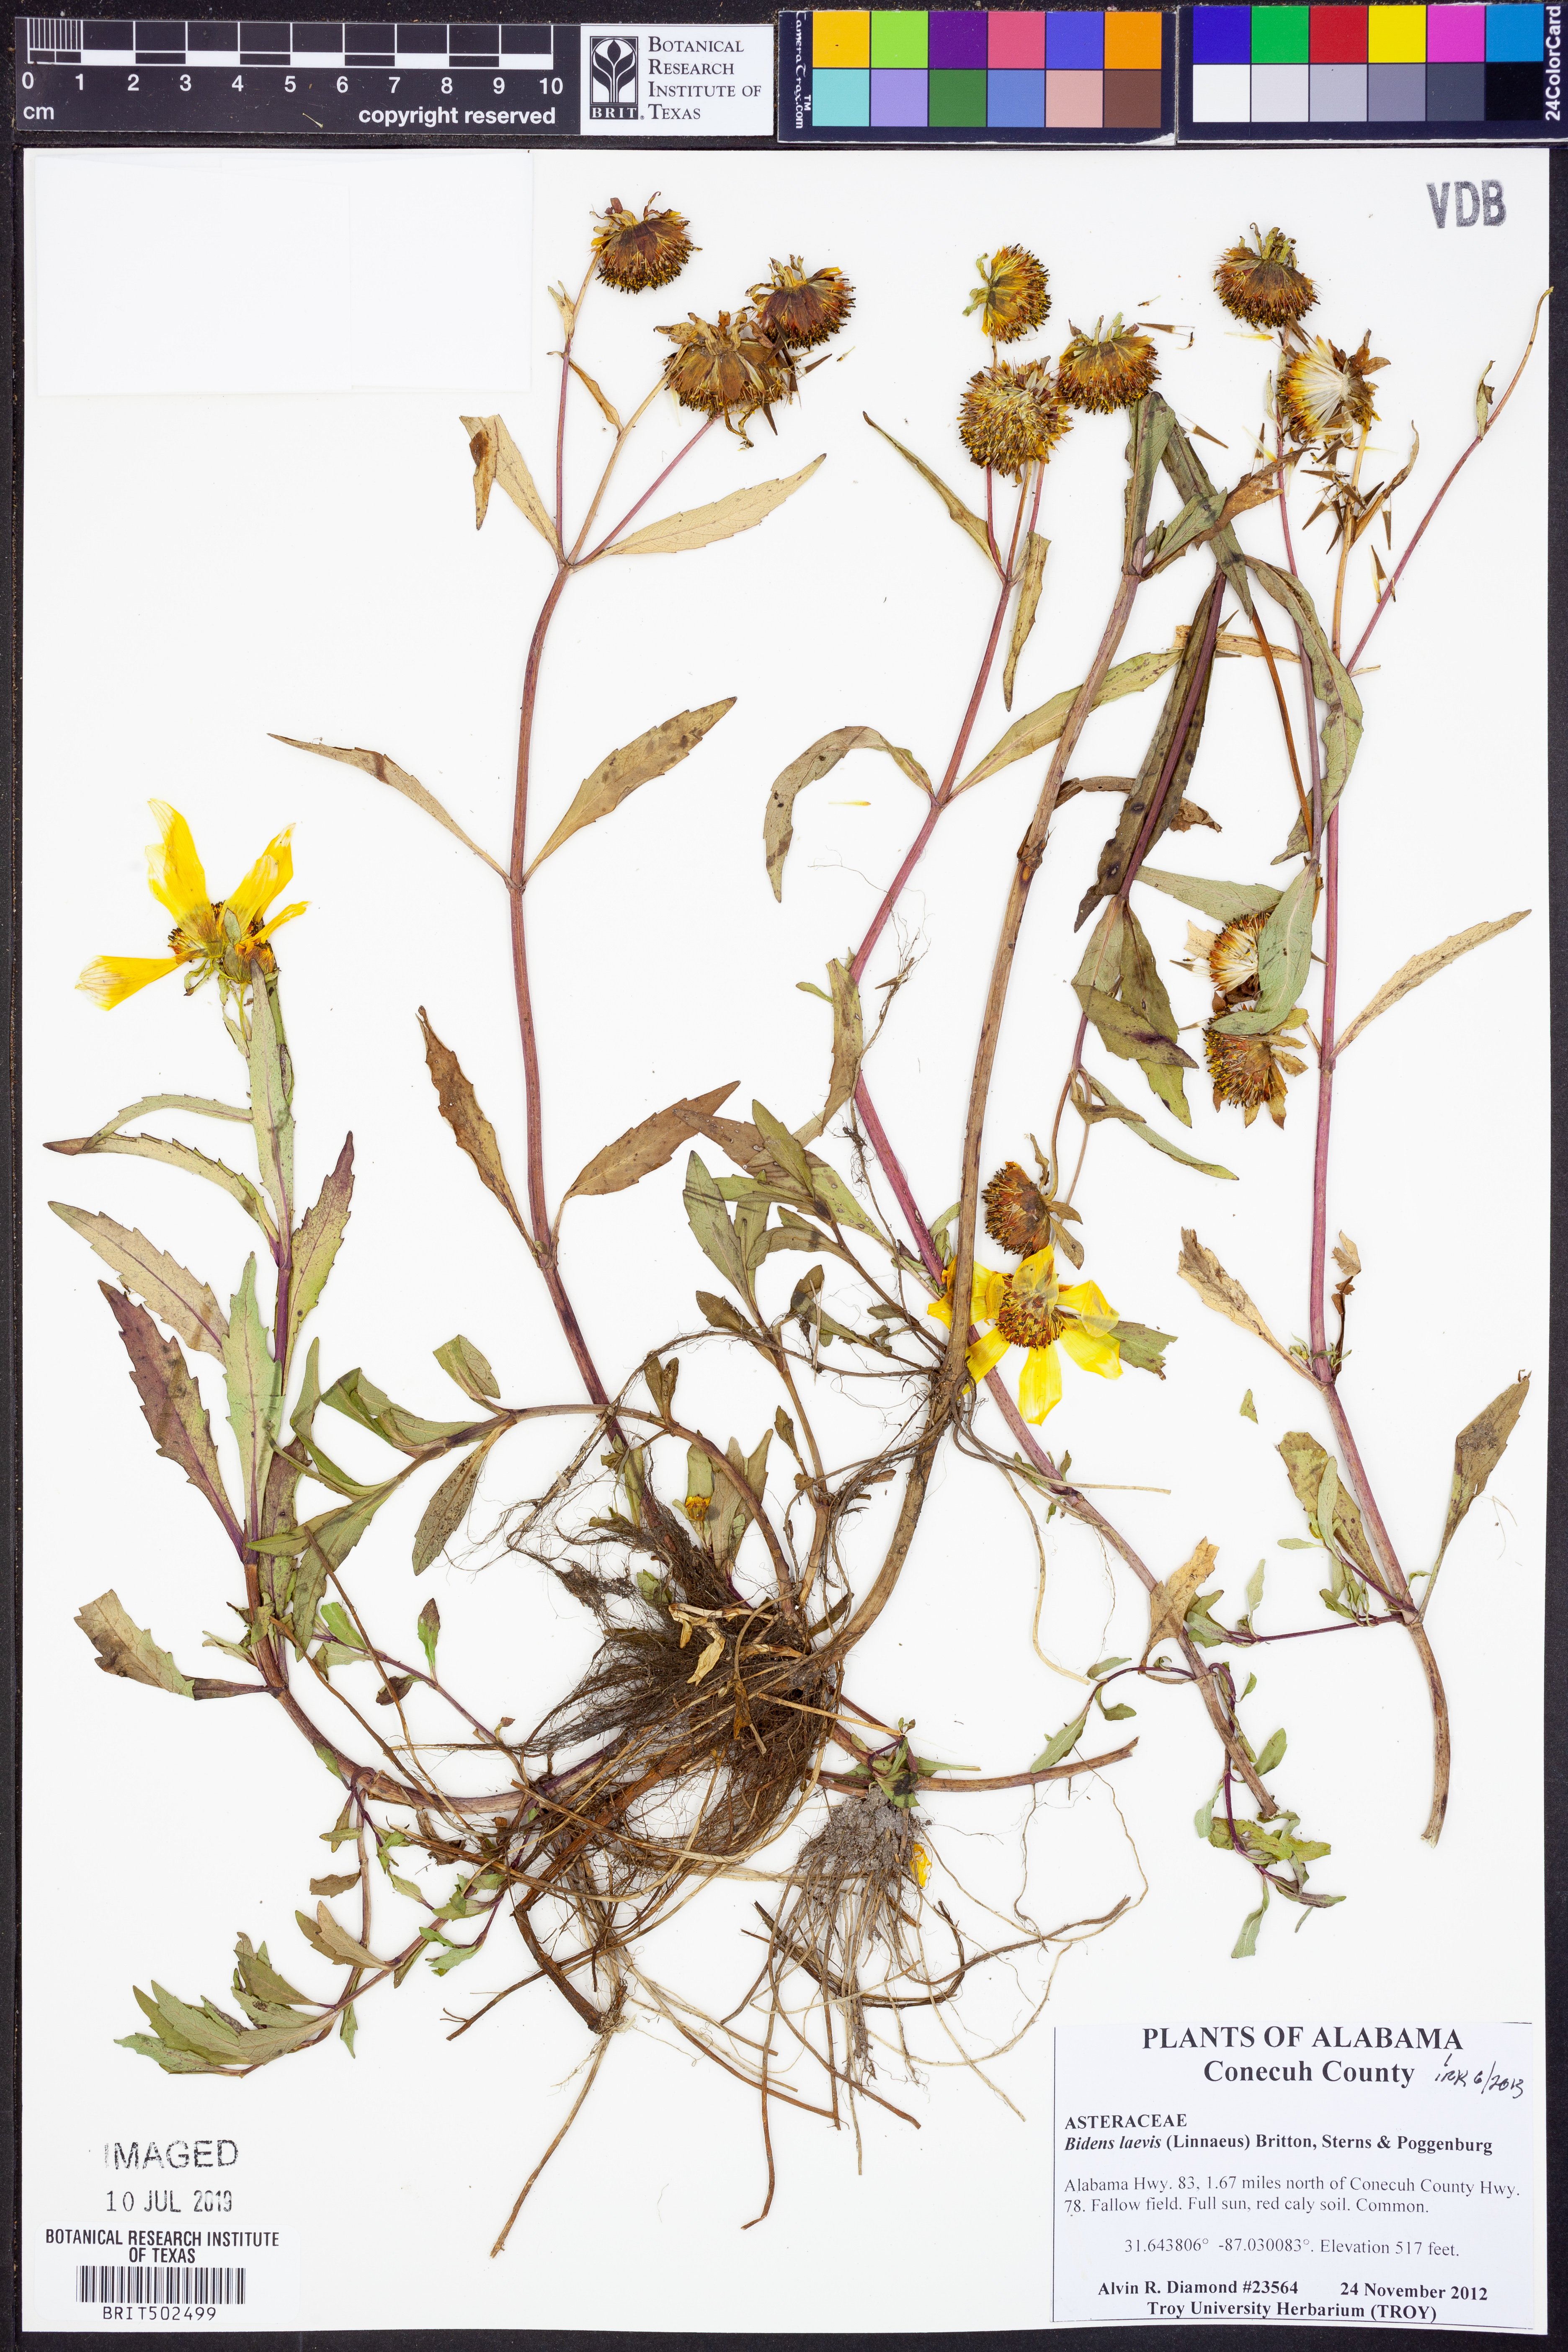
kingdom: Plantae
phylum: Tracheophyta
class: Magnoliopsida
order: Asterales
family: Asteraceae
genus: Bidens
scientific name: Bidens laevis
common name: Larger bur-marigold
